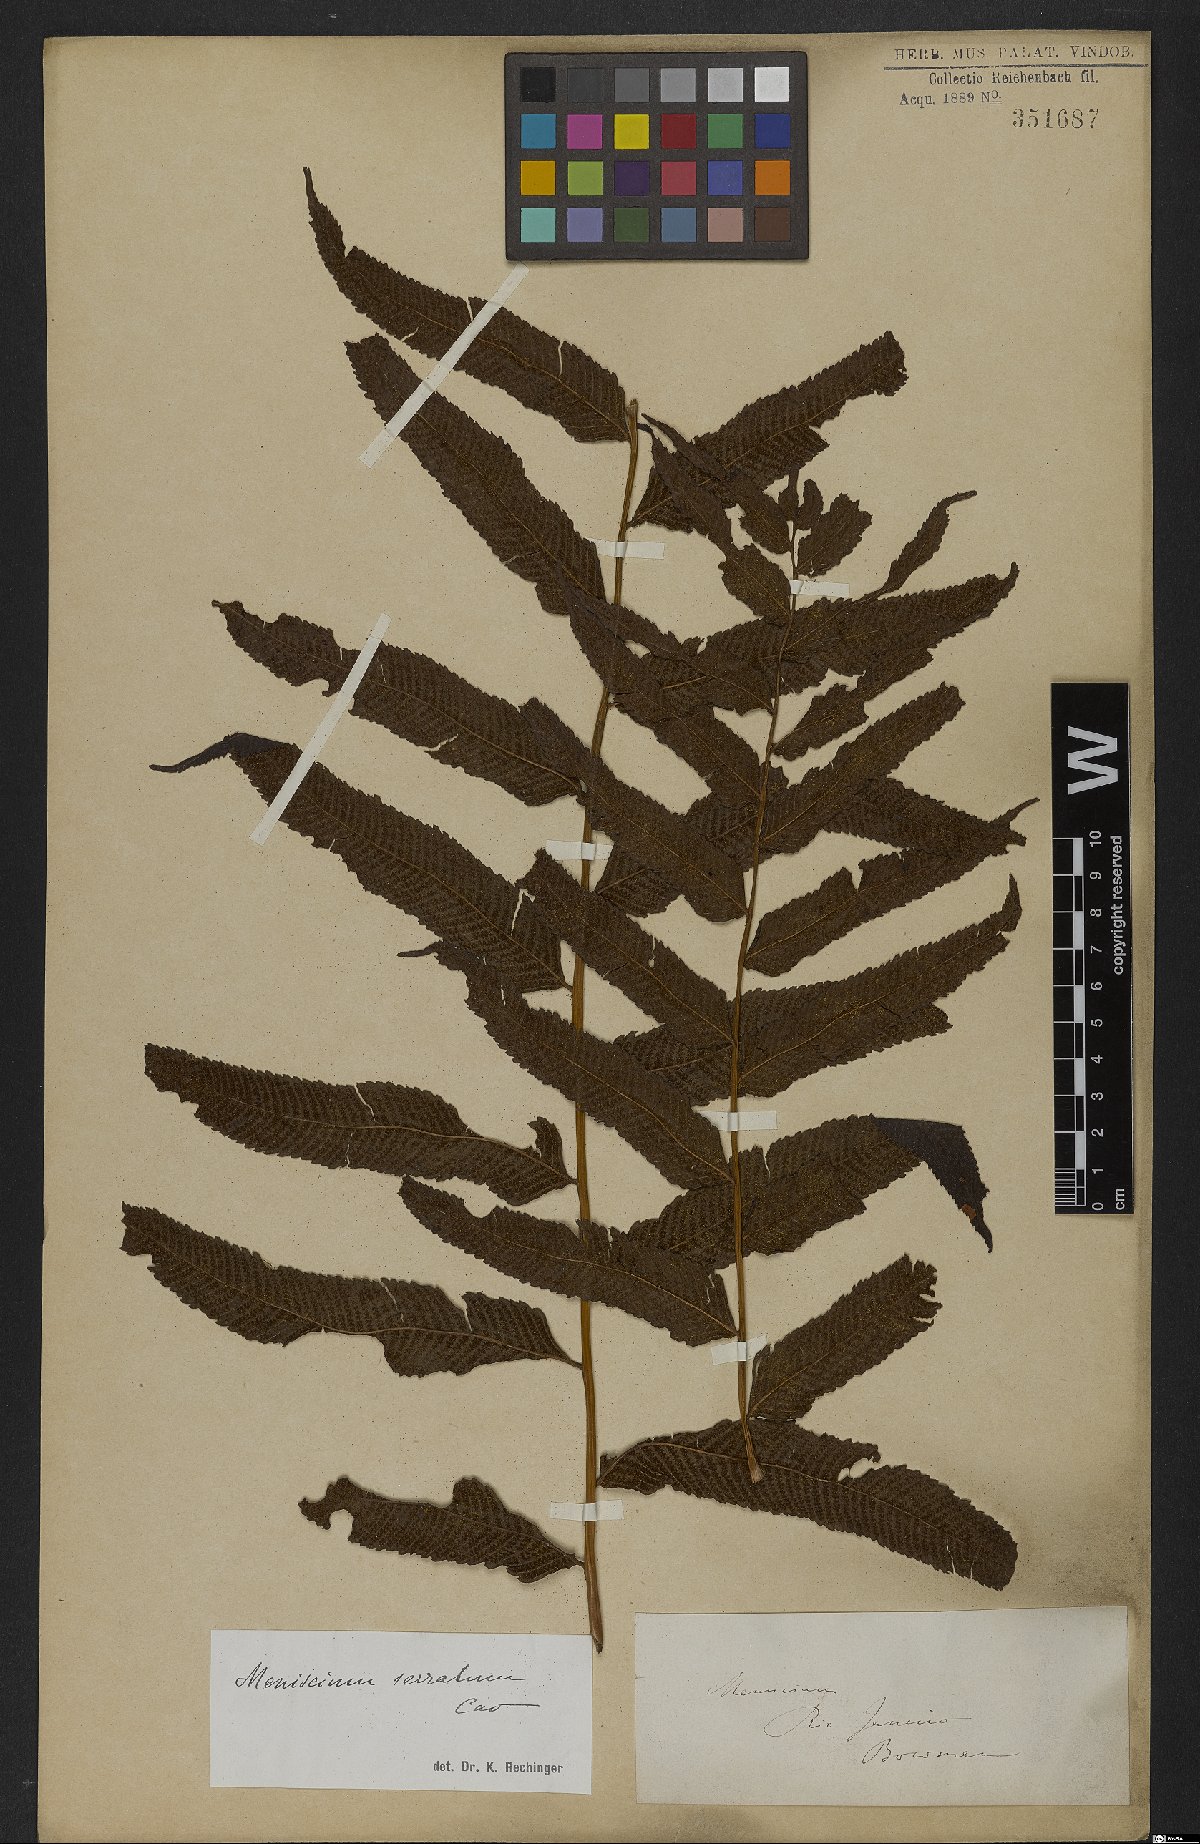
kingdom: Plantae
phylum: Tracheophyta
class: Polypodiopsida
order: Polypodiales
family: Thelypteridaceae
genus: Meniscium
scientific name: Meniscium serratum
